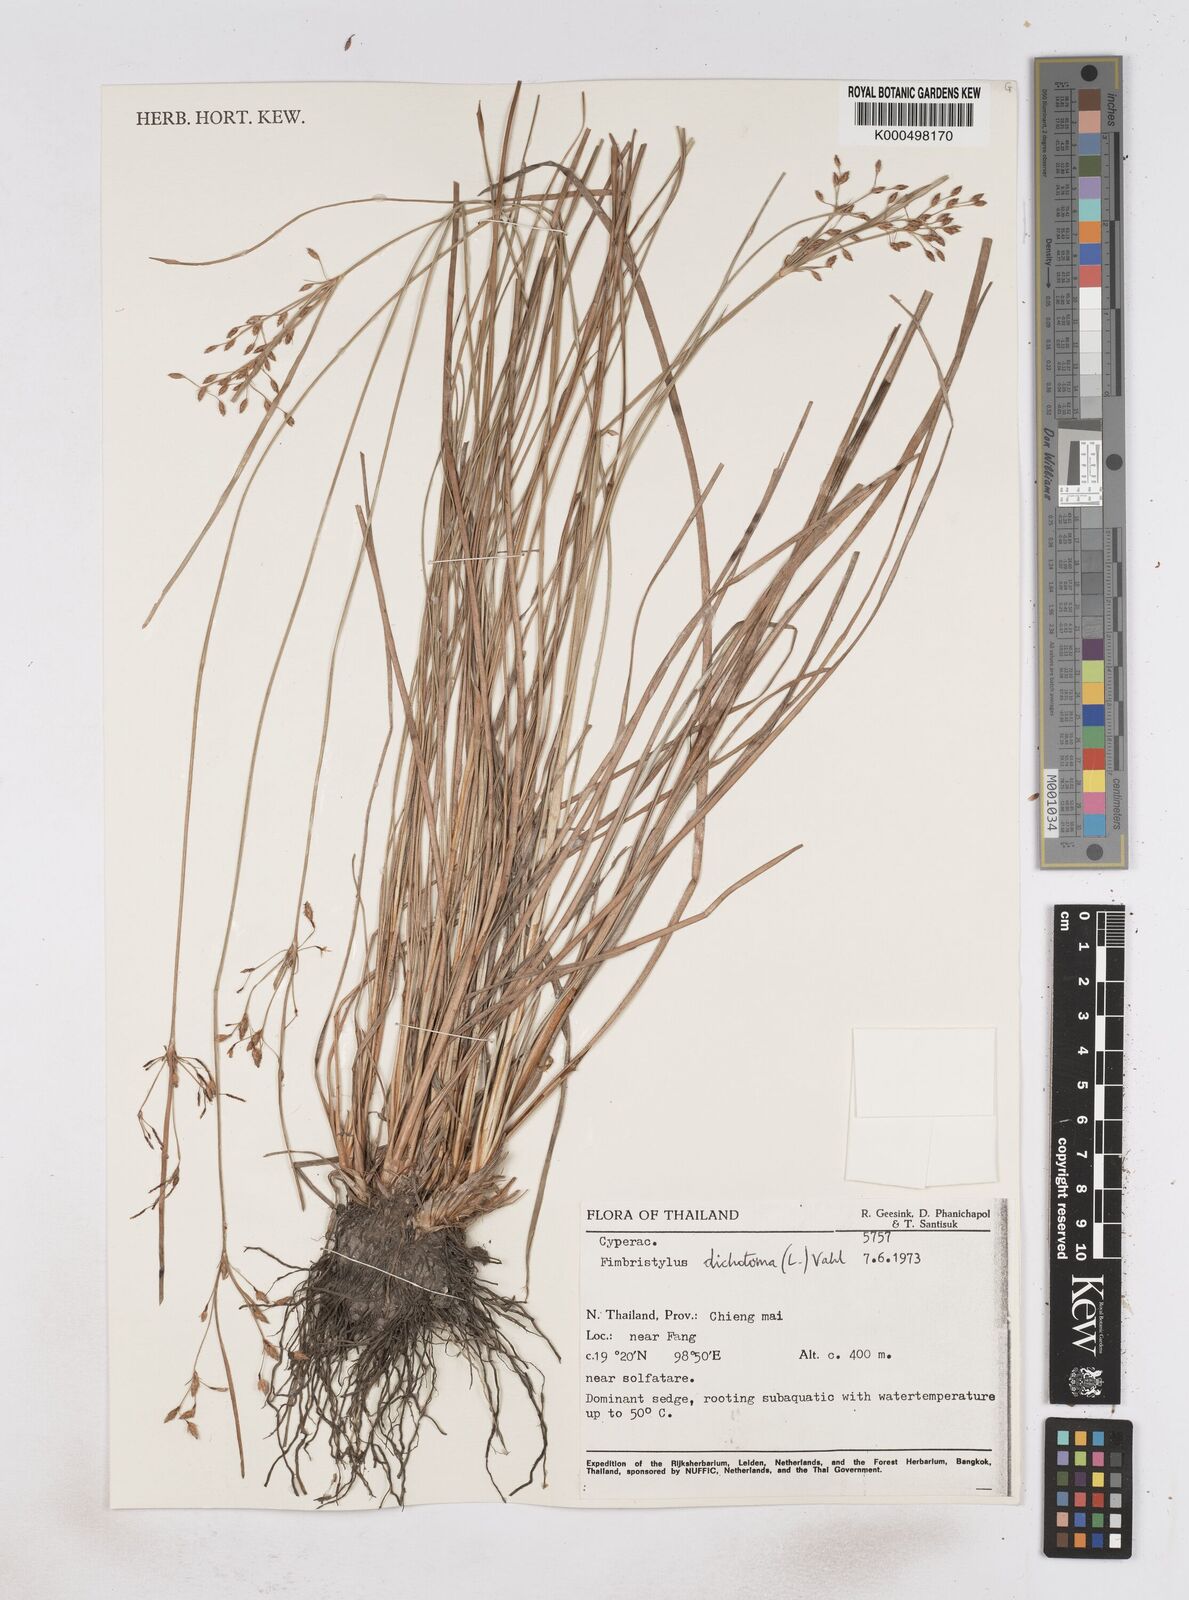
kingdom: Plantae
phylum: Tracheophyta
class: Liliopsida
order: Poales
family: Cyperaceae
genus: Fimbristylis
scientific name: Fimbristylis dichotoma
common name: Forked fimbry
